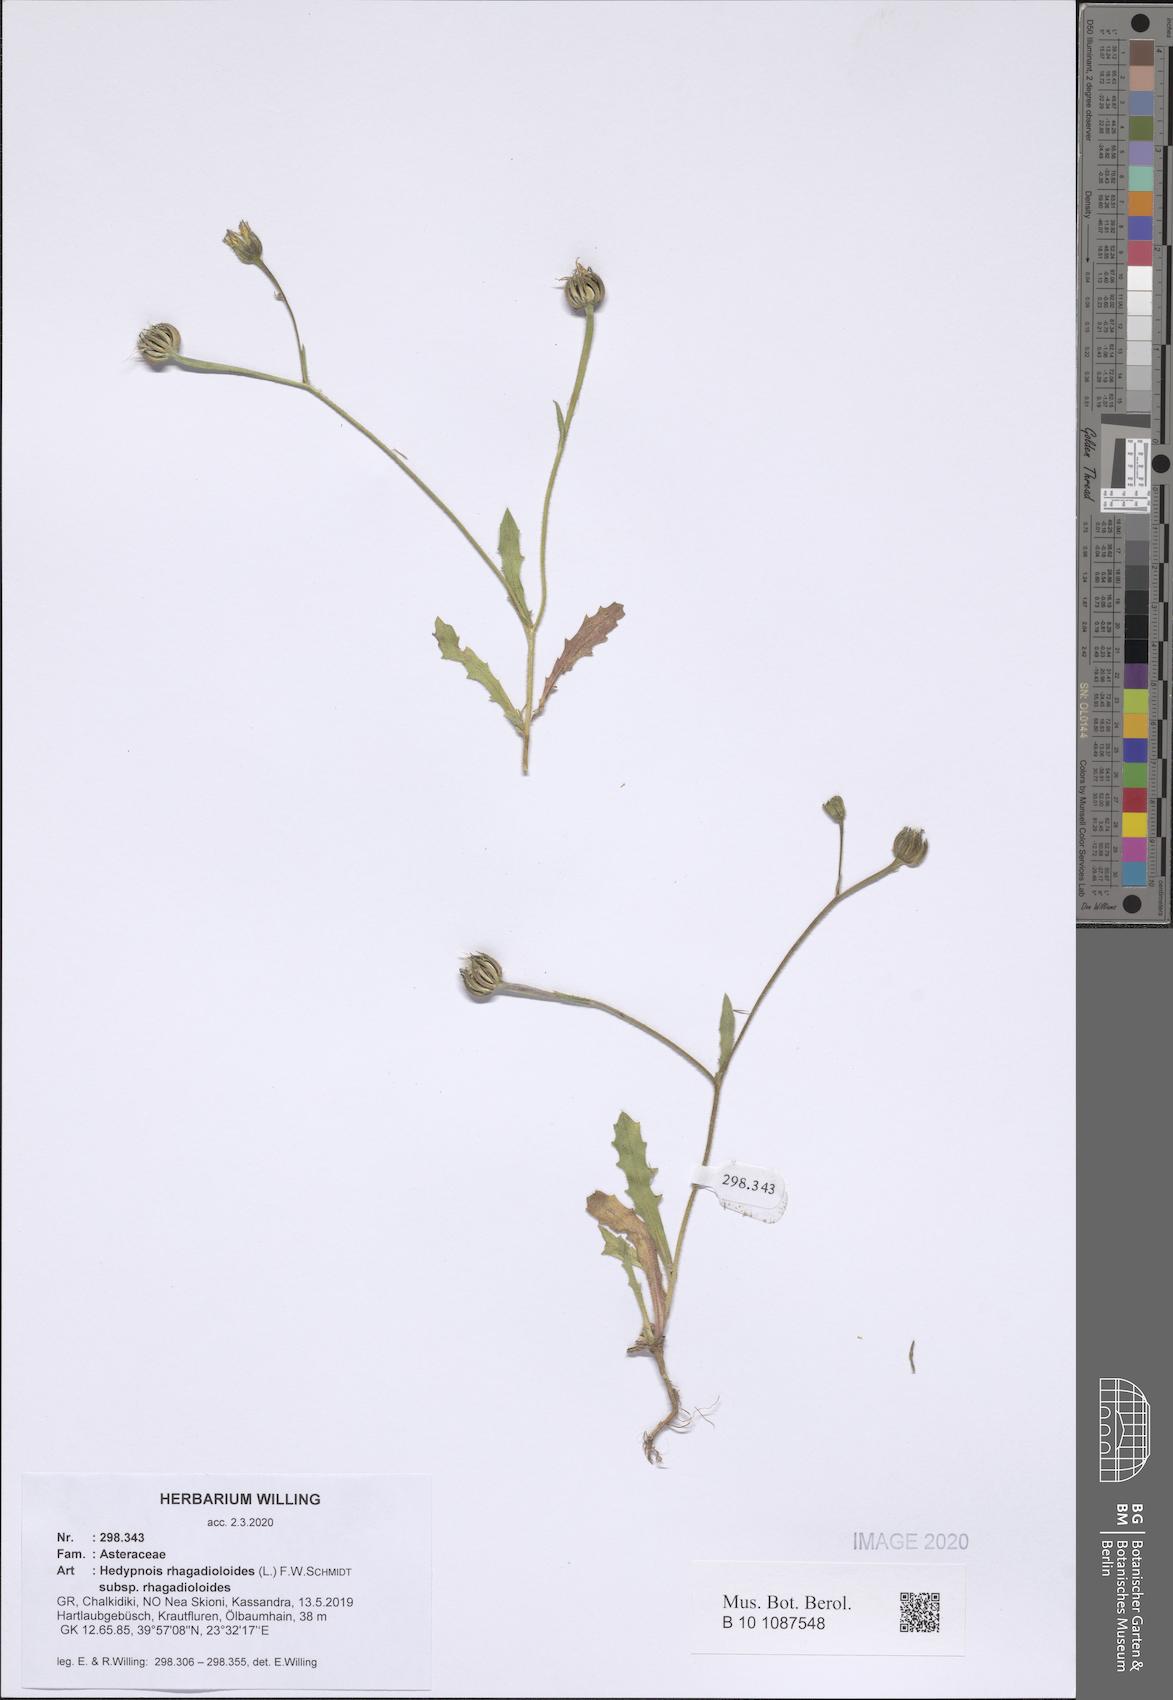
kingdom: Plantae
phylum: Tracheophyta
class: Magnoliopsida
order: Asterales
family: Asteraceae
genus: Hedypnois
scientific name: Hedypnois rhagadioloides
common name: Cretan weed
